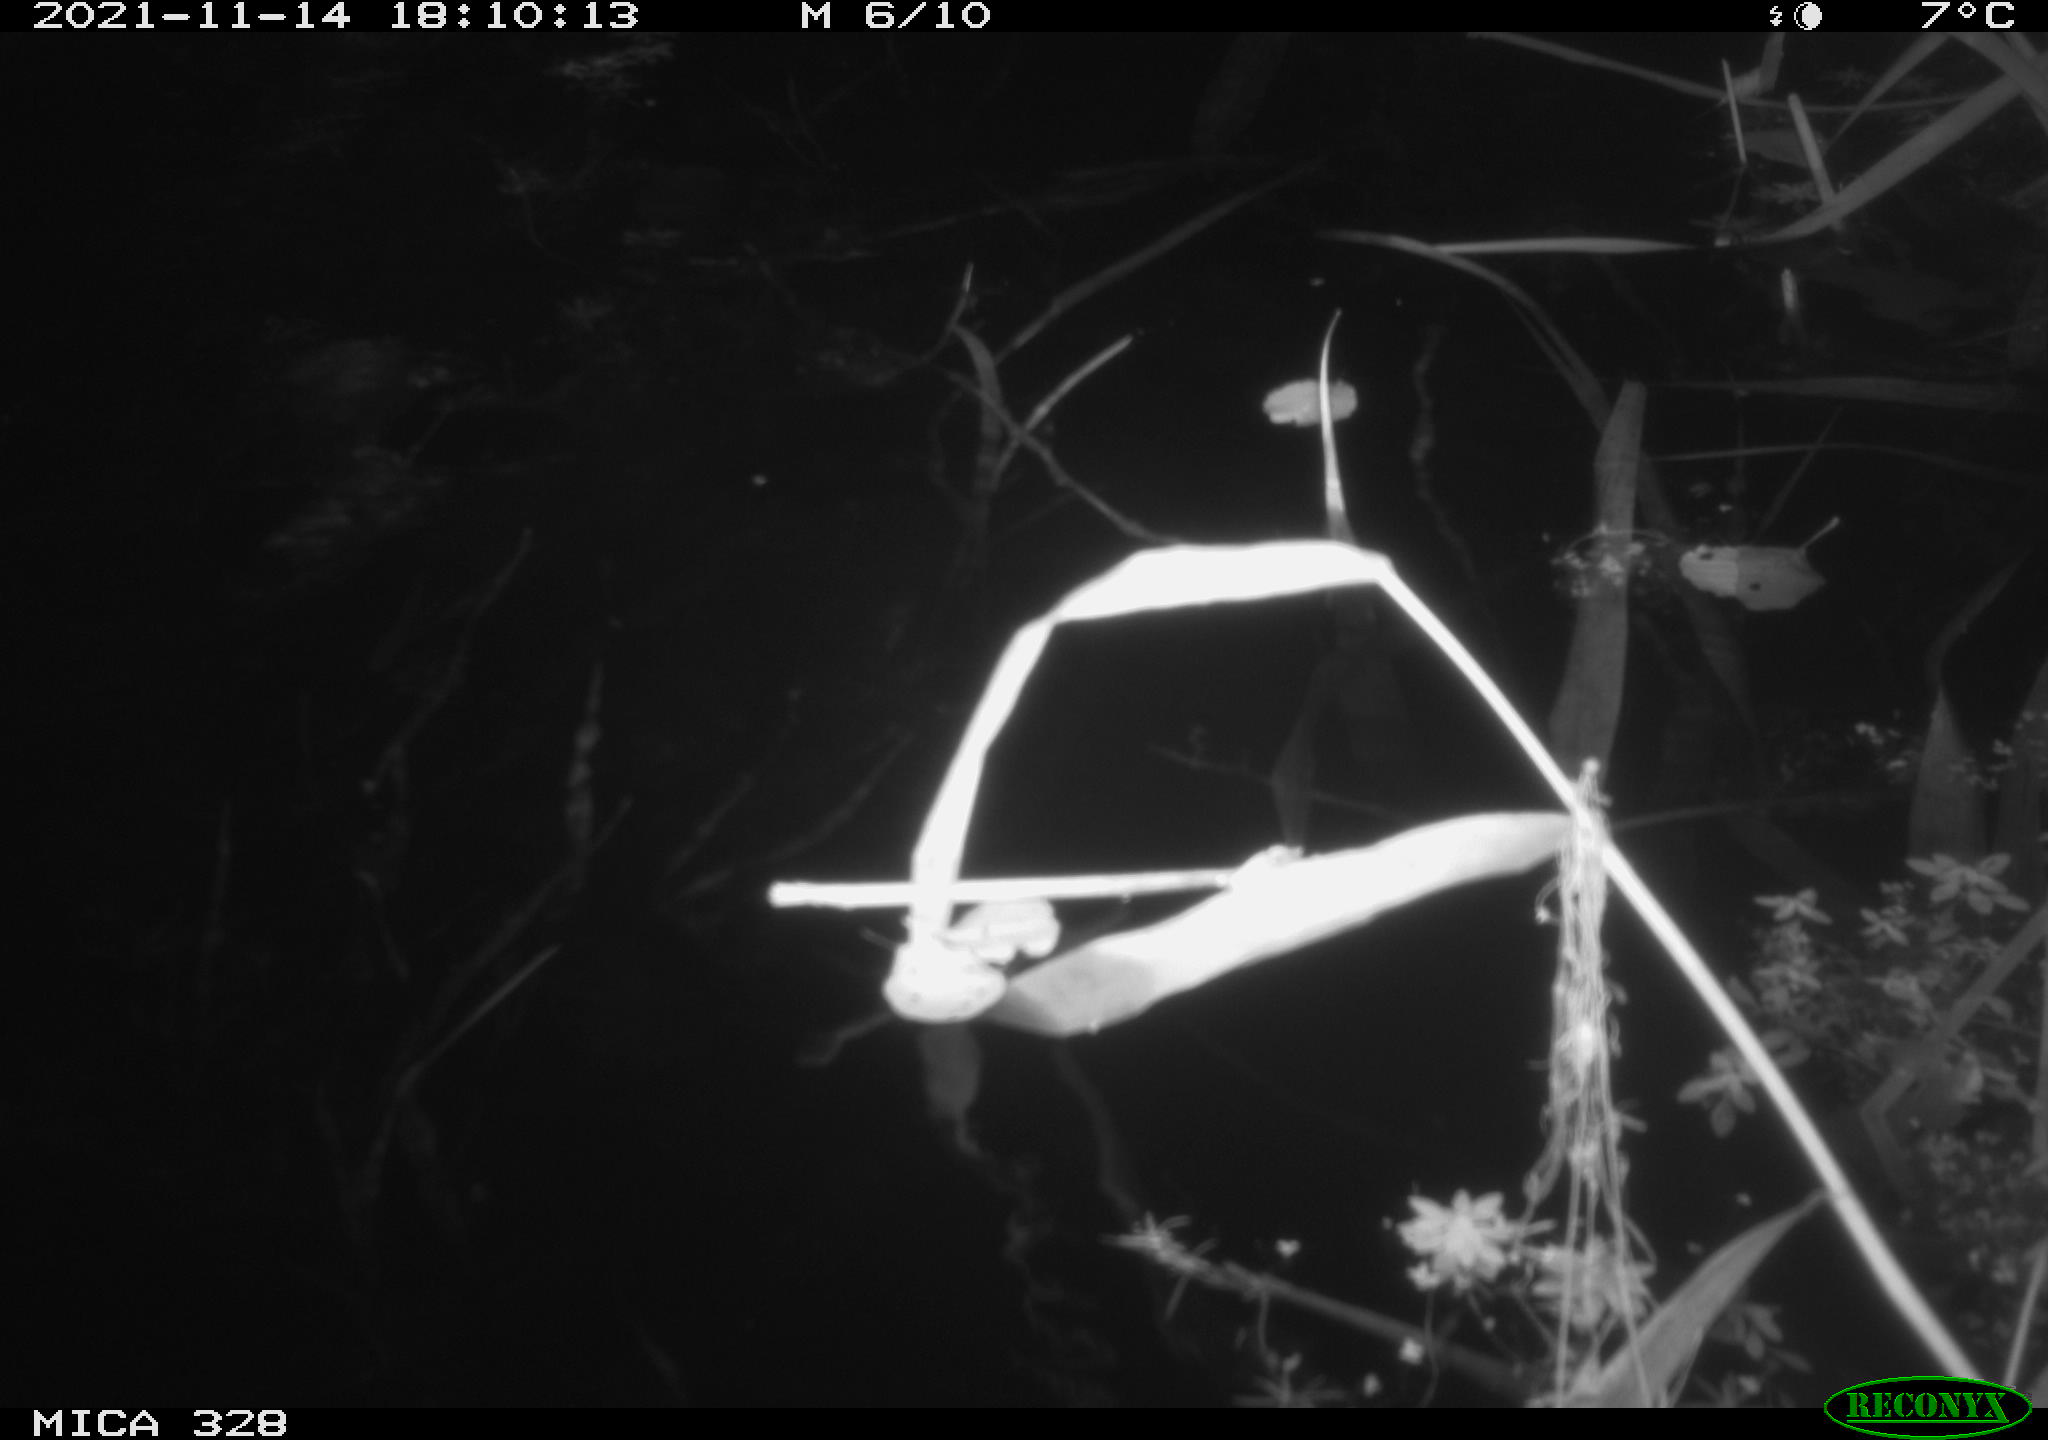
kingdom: Animalia
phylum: Chordata
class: Mammalia
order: Rodentia
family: Cricetidae
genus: Ondatra
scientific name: Ondatra zibethicus
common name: Muskrat
